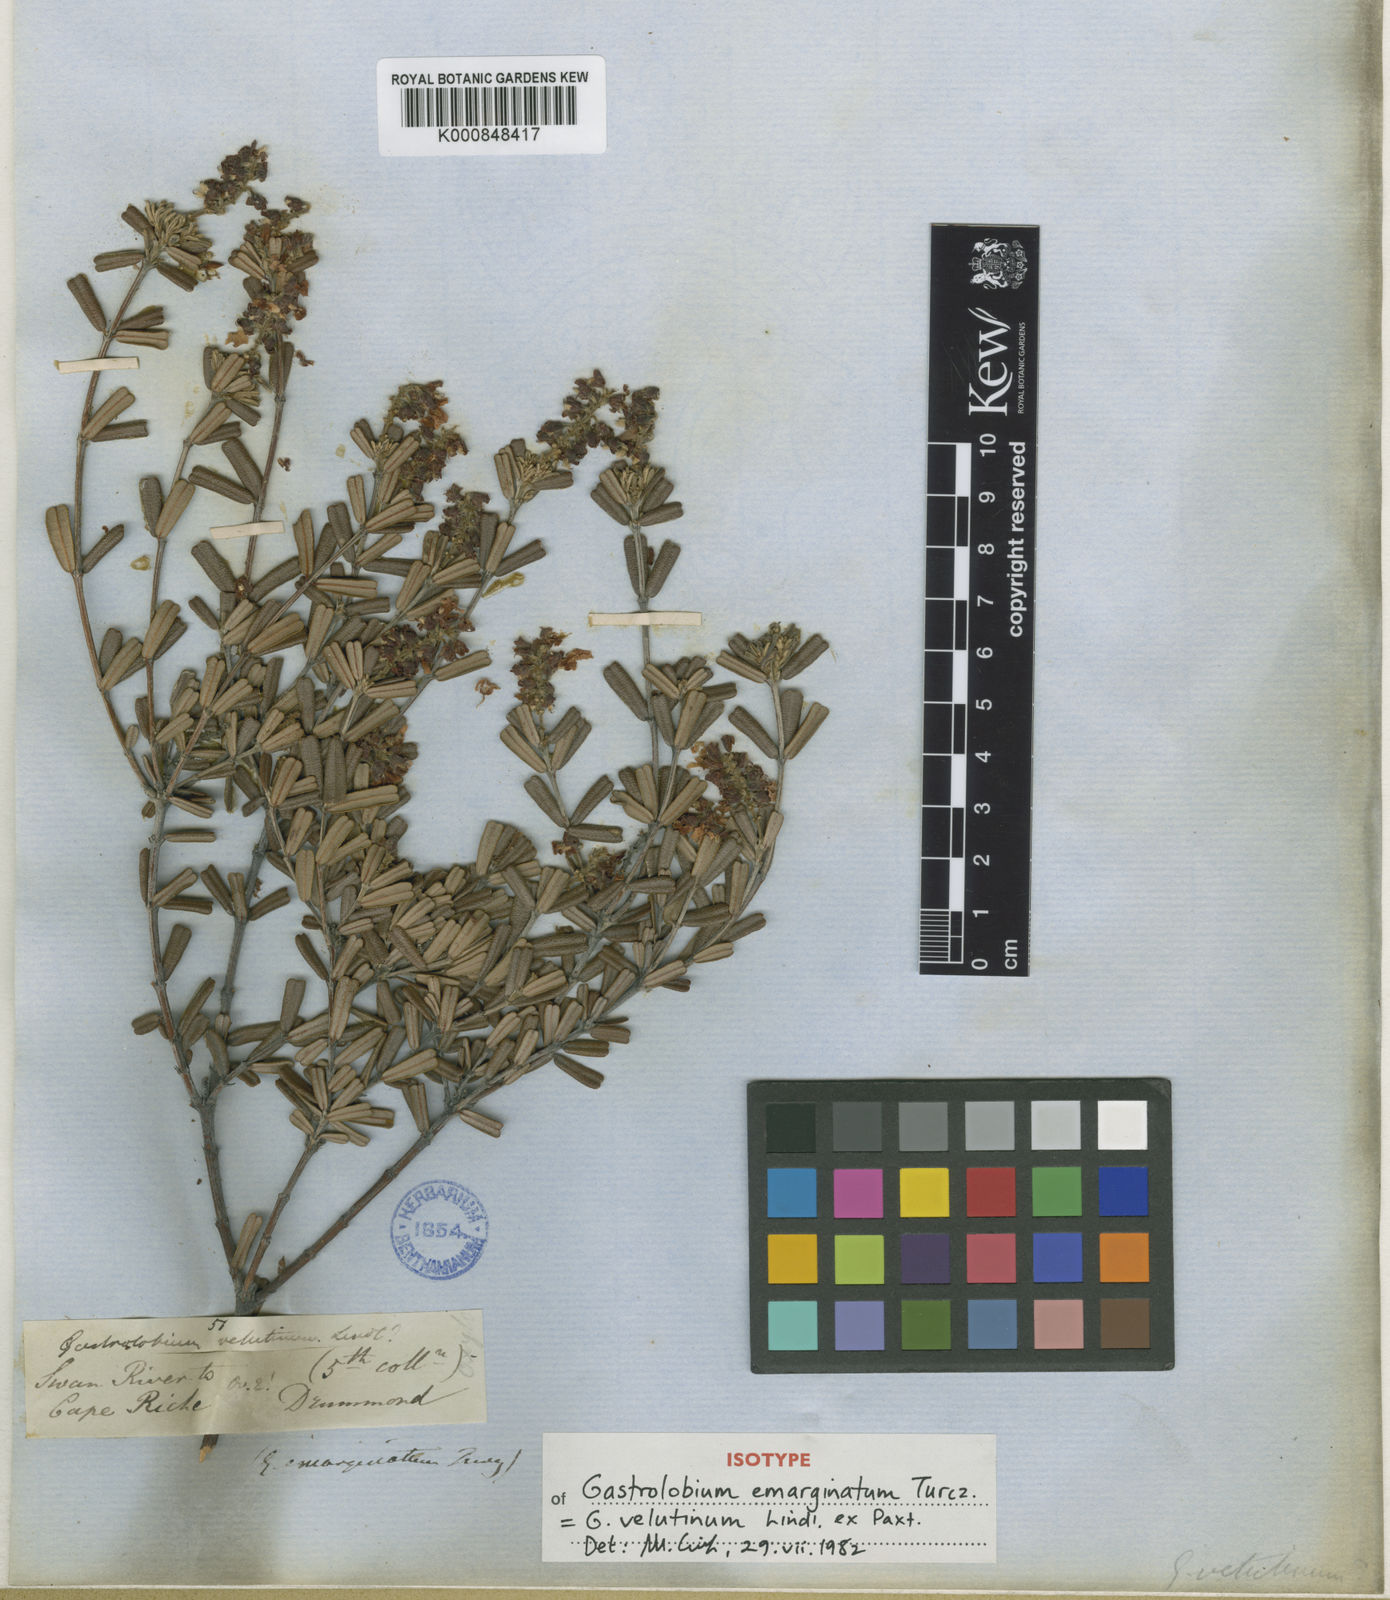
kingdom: Plantae
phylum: Tracheophyta
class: Magnoliopsida
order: Fabales
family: Fabaceae
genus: Gastrolobium
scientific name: Gastrolobium velutinum
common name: Stirling range poison
